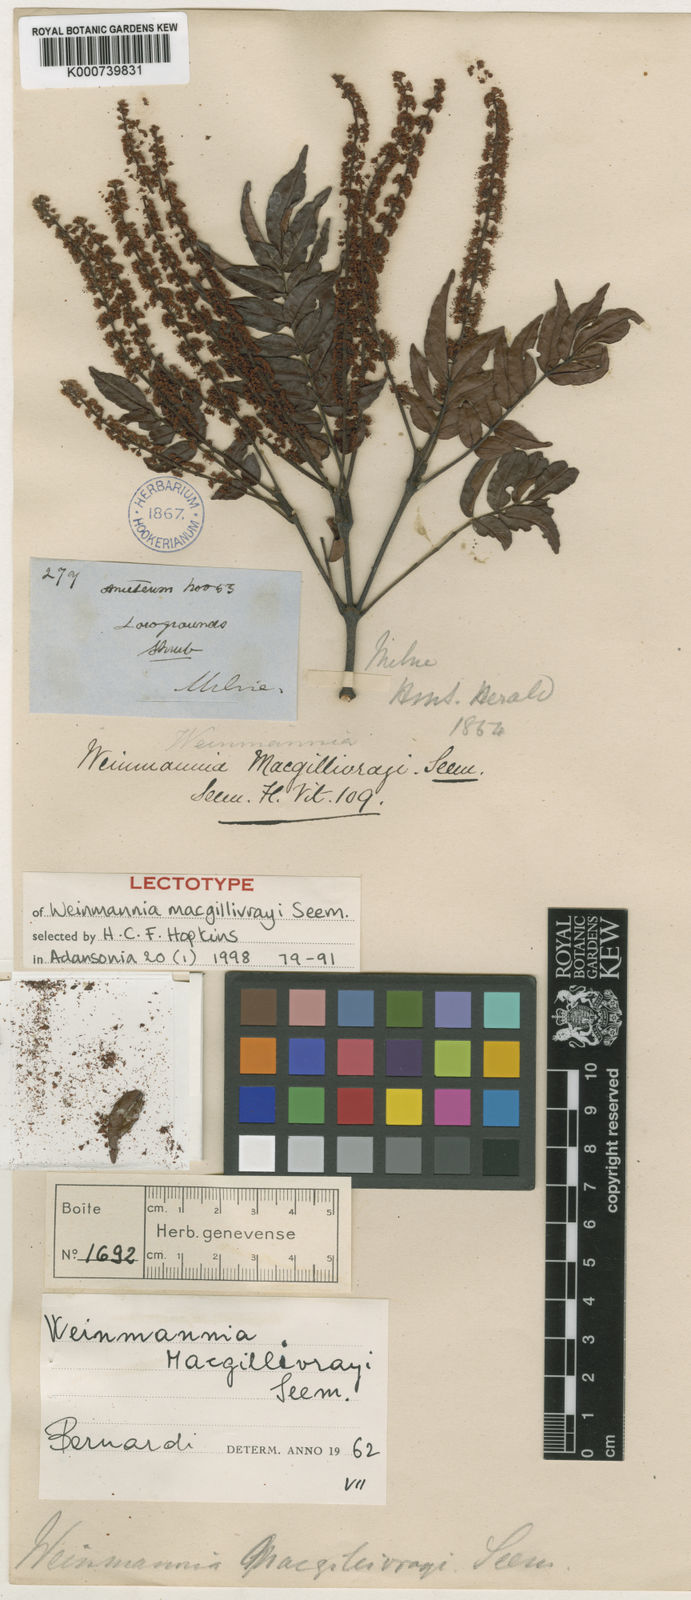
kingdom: Plantae
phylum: Tracheophyta
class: Magnoliopsida
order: Oxalidales
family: Cunoniaceae
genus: Pterophylla
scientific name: Pterophylla macgillivrayi
